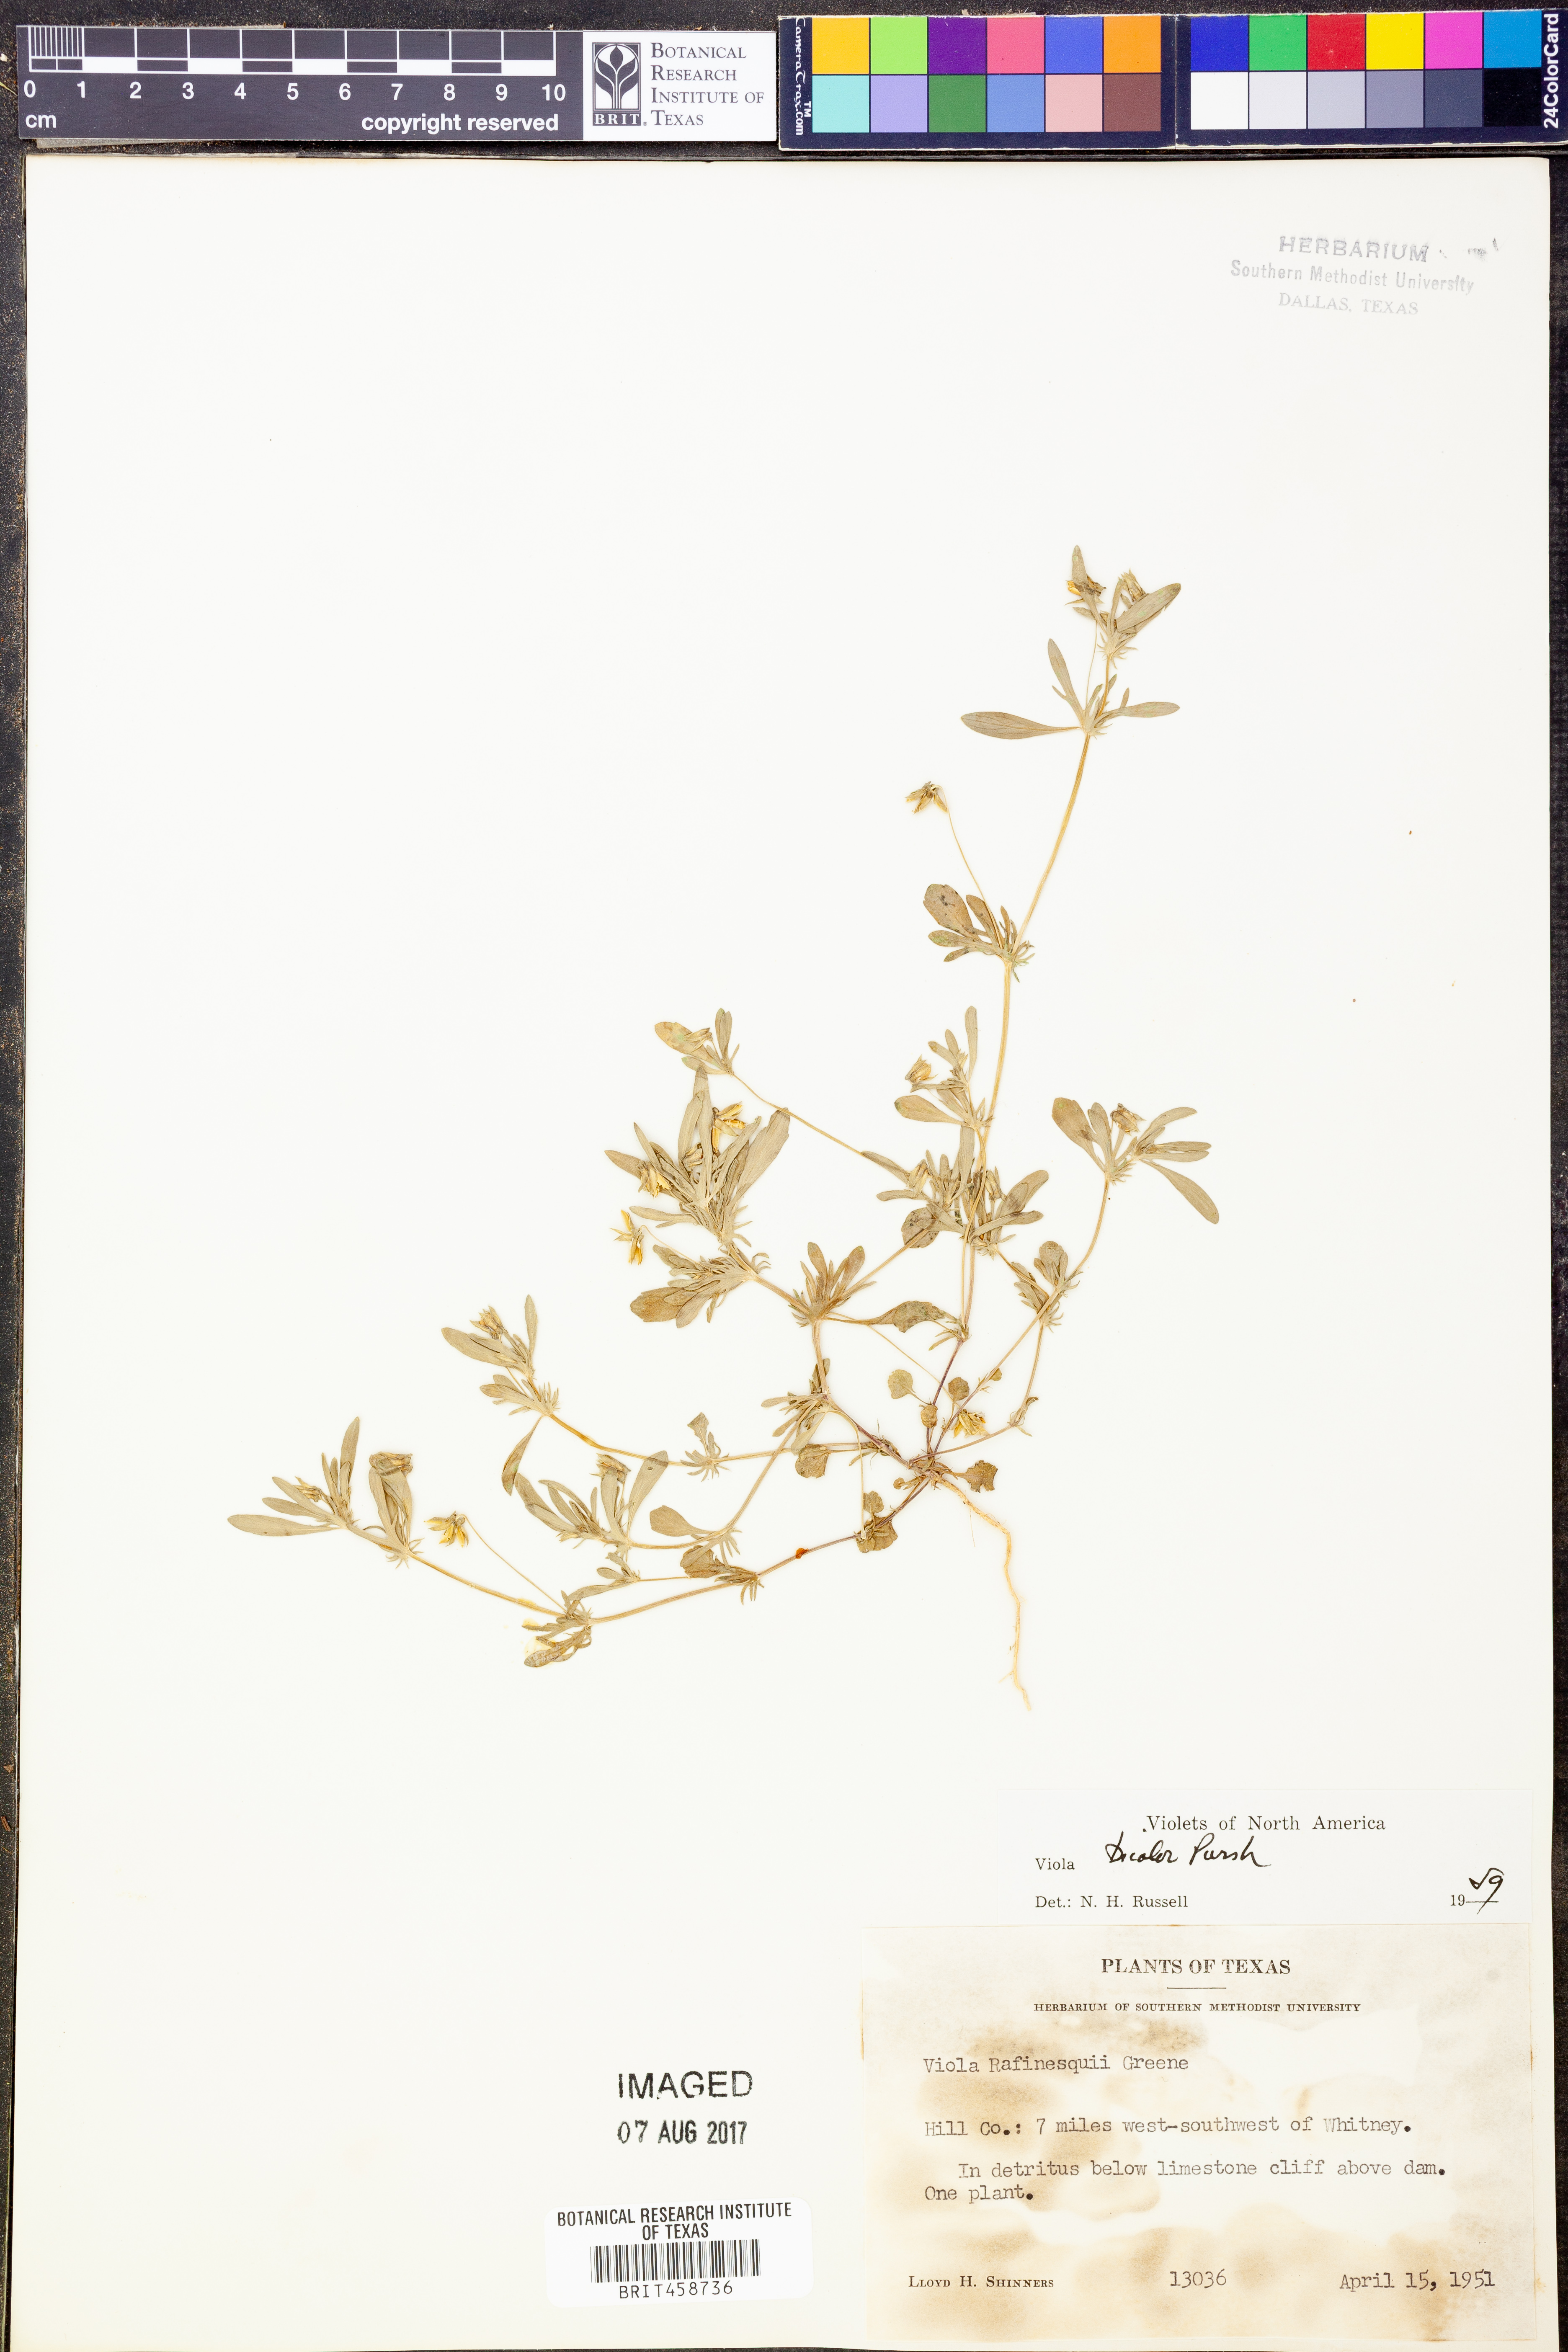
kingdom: Plantae
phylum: Tracheophyta
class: Magnoliopsida
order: Malpighiales
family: Violaceae
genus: Viola
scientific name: Viola rafinesquei
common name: American field pansy
